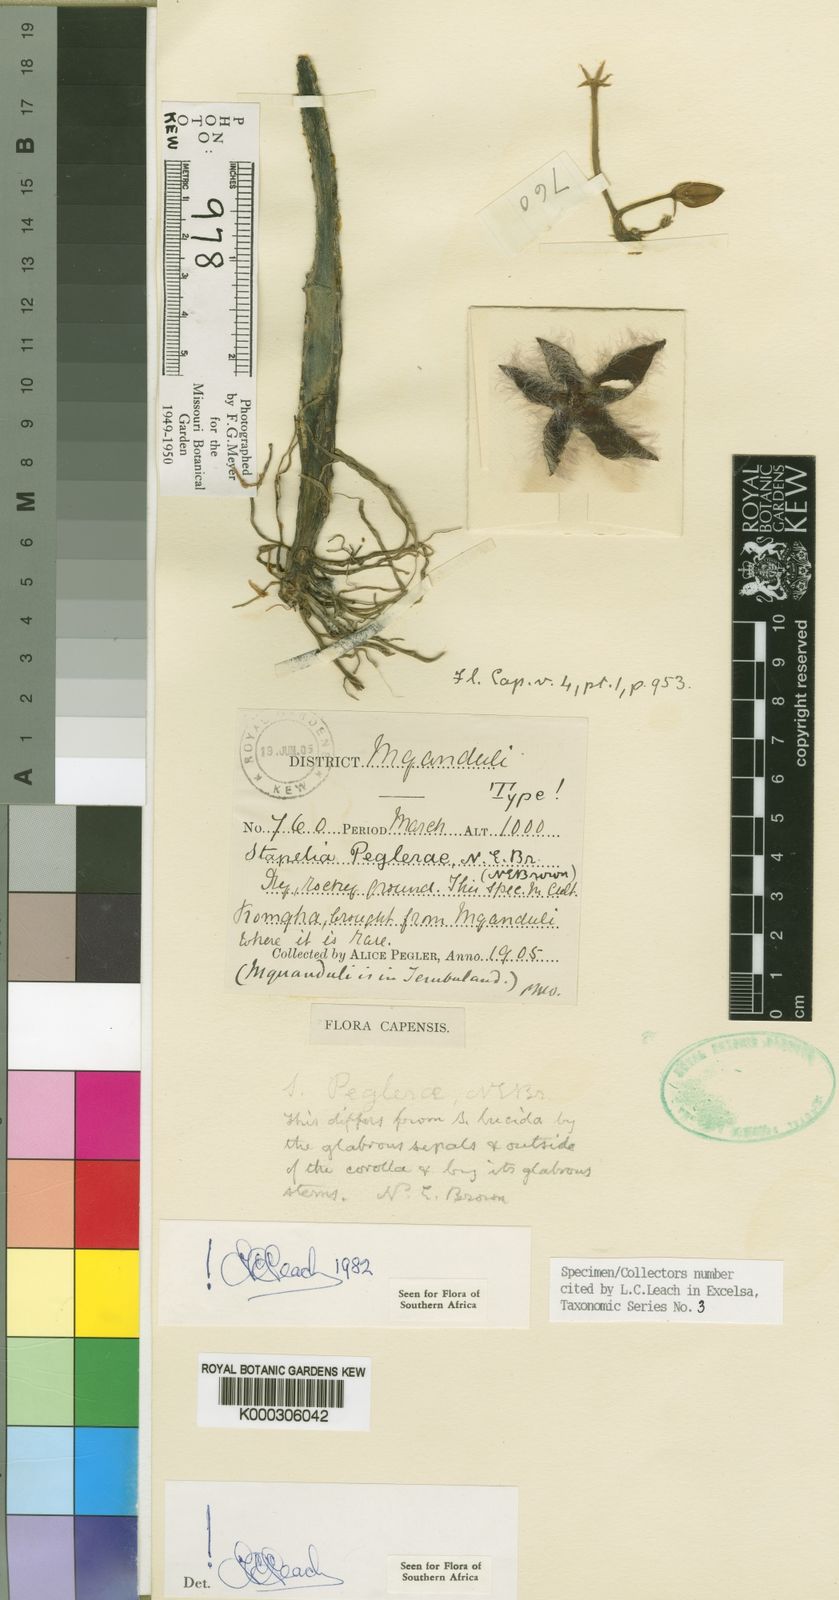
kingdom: Plantae
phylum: Tracheophyta
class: Magnoliopsida
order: Gentianales
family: Apocynaceae
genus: Ceropegia
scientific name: Ceropegia pulvinata
